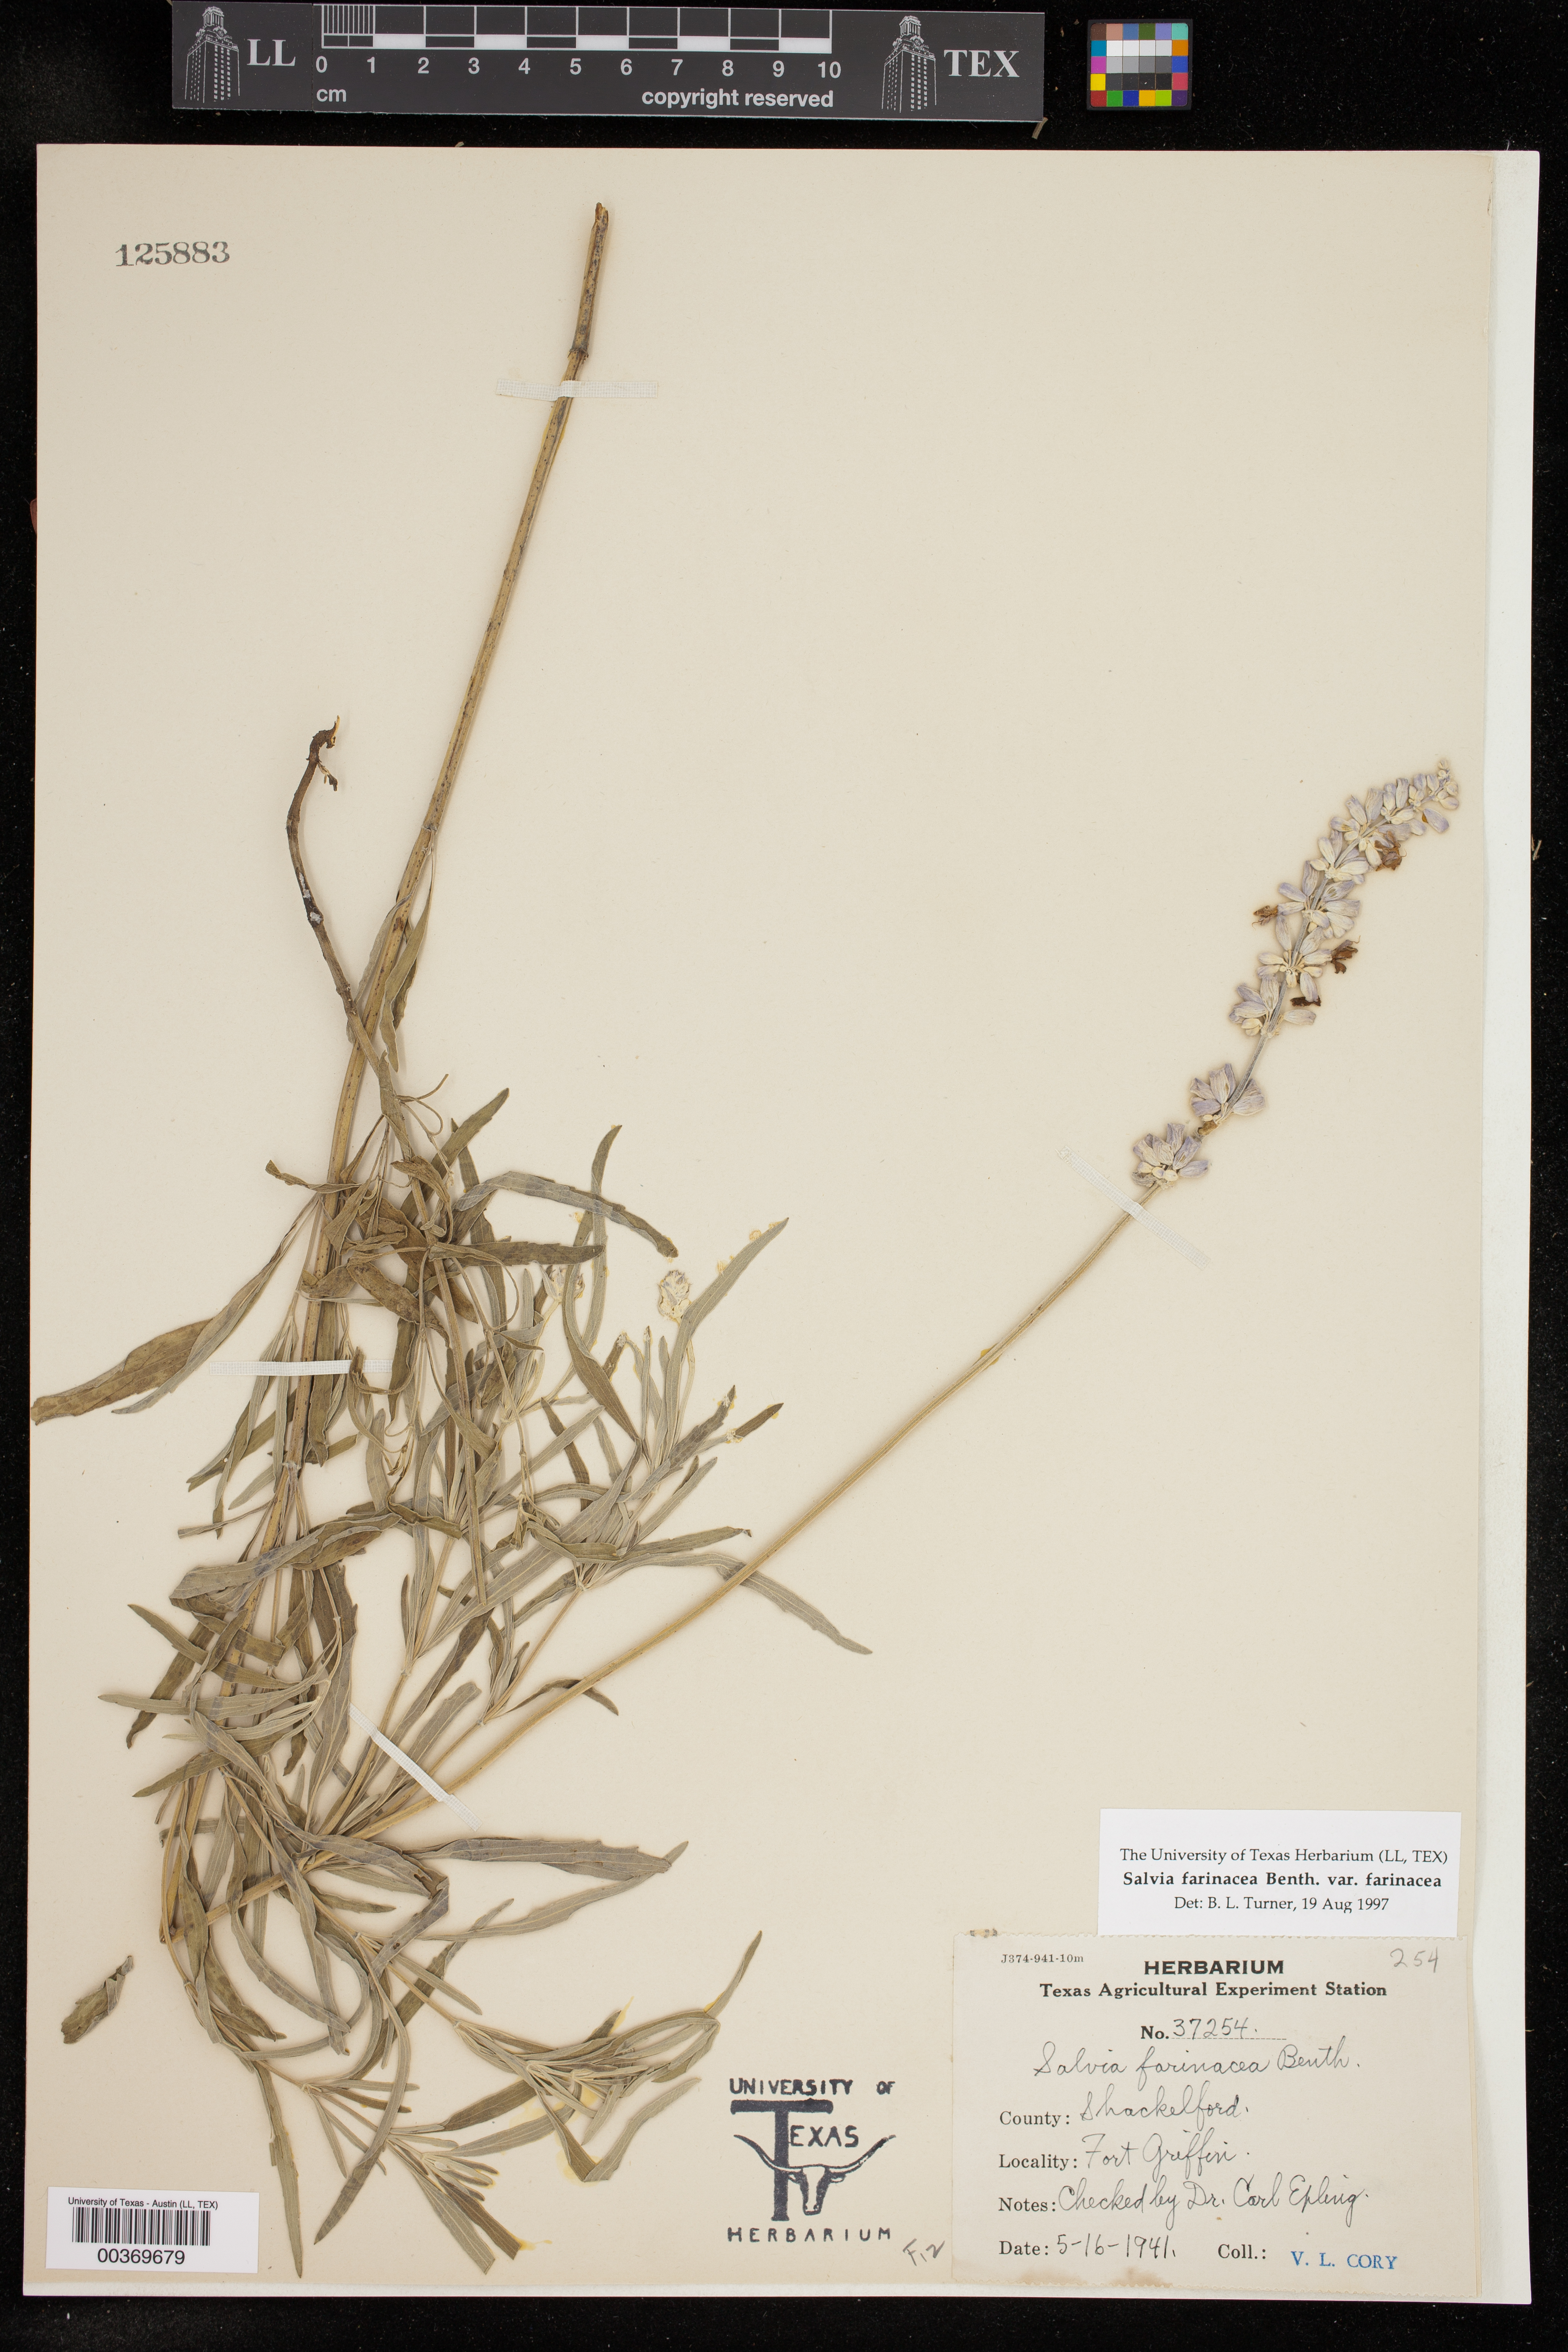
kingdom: Plantae
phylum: Tracheophyta
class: Magnoliopsida
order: Lamiales
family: Lamiaceae
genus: Salvia
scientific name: Salvia farinacea
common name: Mealy sage
